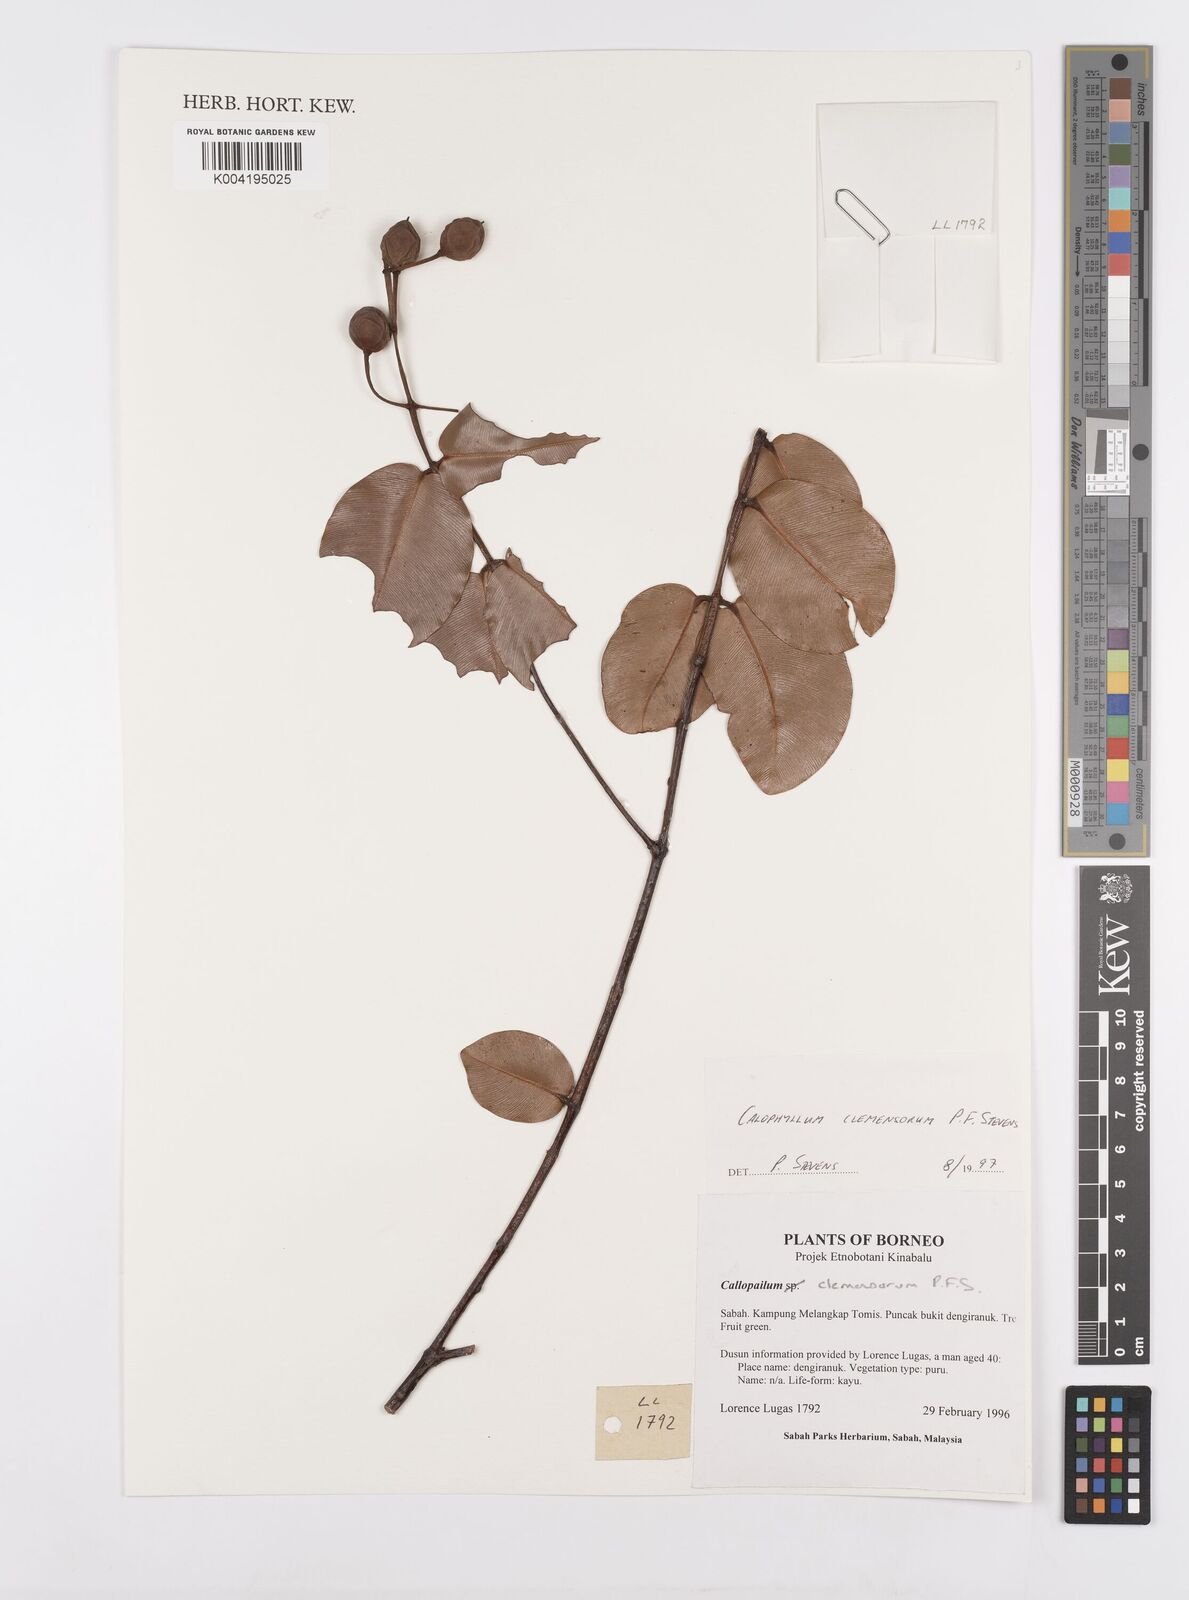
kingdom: Plantae
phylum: Tracheophyta
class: Magnoliopsida
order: Malpighiales
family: Calophyllaceae
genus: Calophyllum
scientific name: Calophyllum clemensiorum
